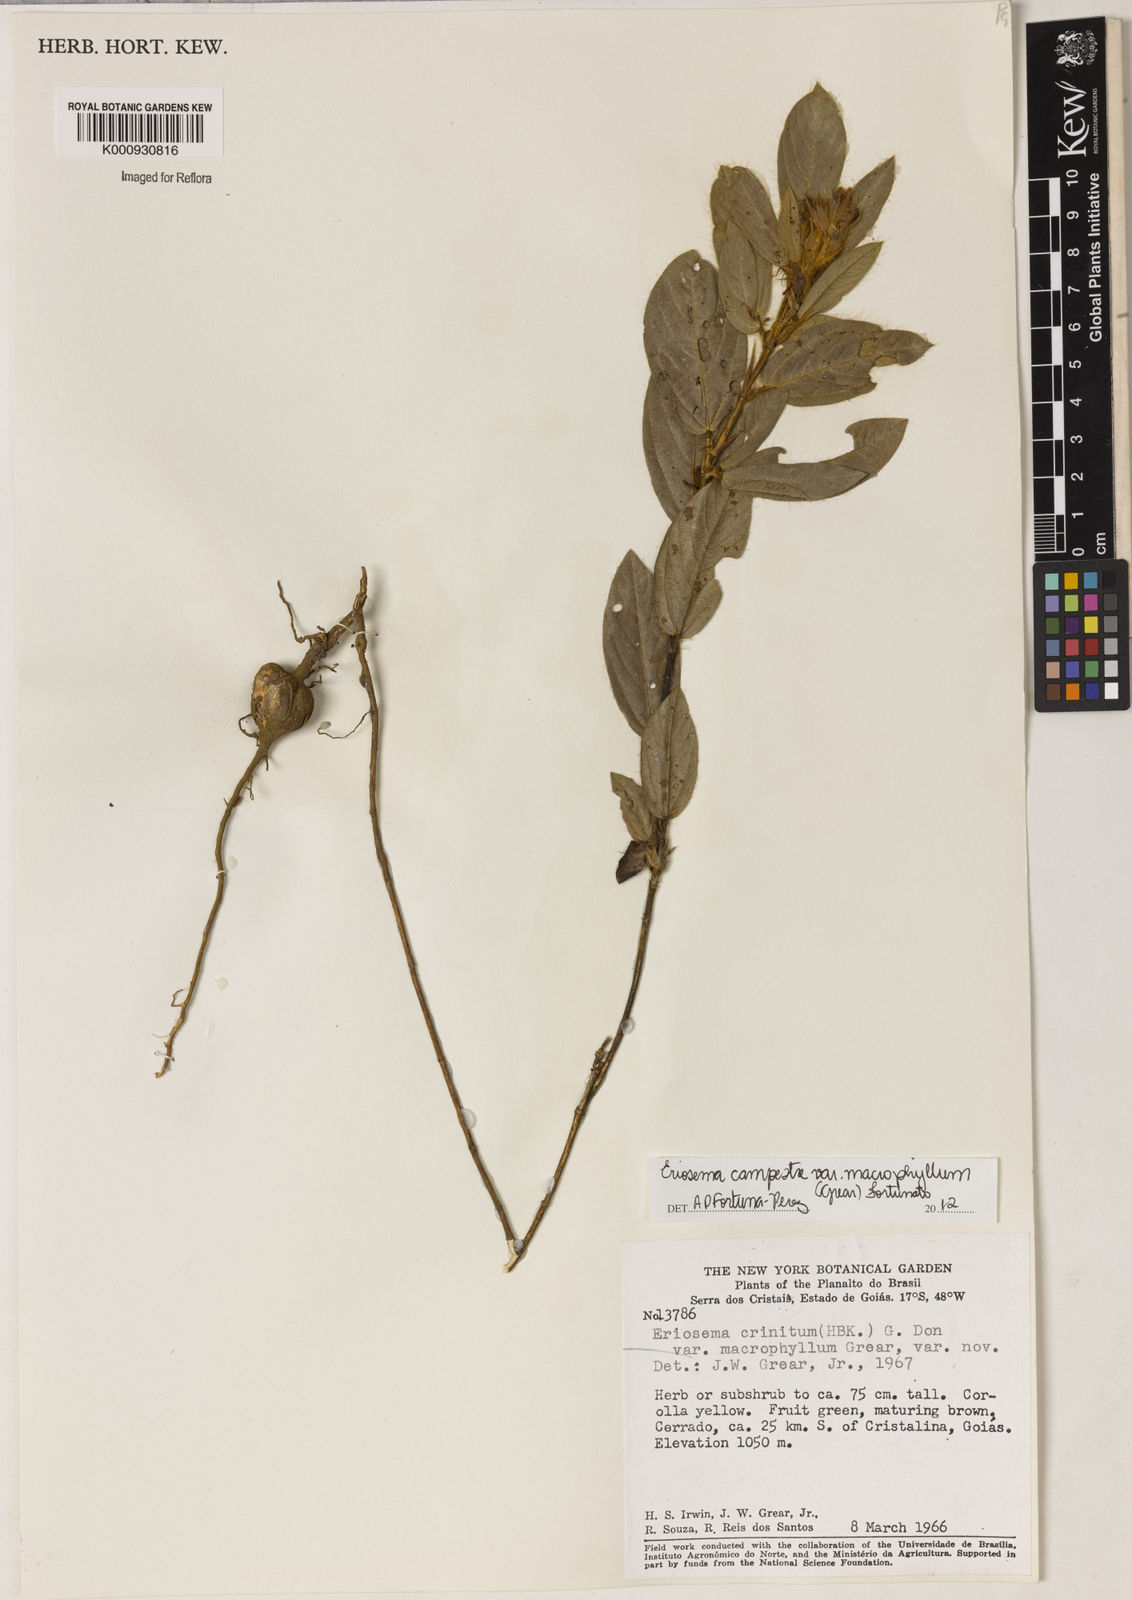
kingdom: Plantae
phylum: Tracheophyta
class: Magnoliopsida
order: Fabales
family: Fabaceae
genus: Eriosema
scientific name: Eriosema campestre
